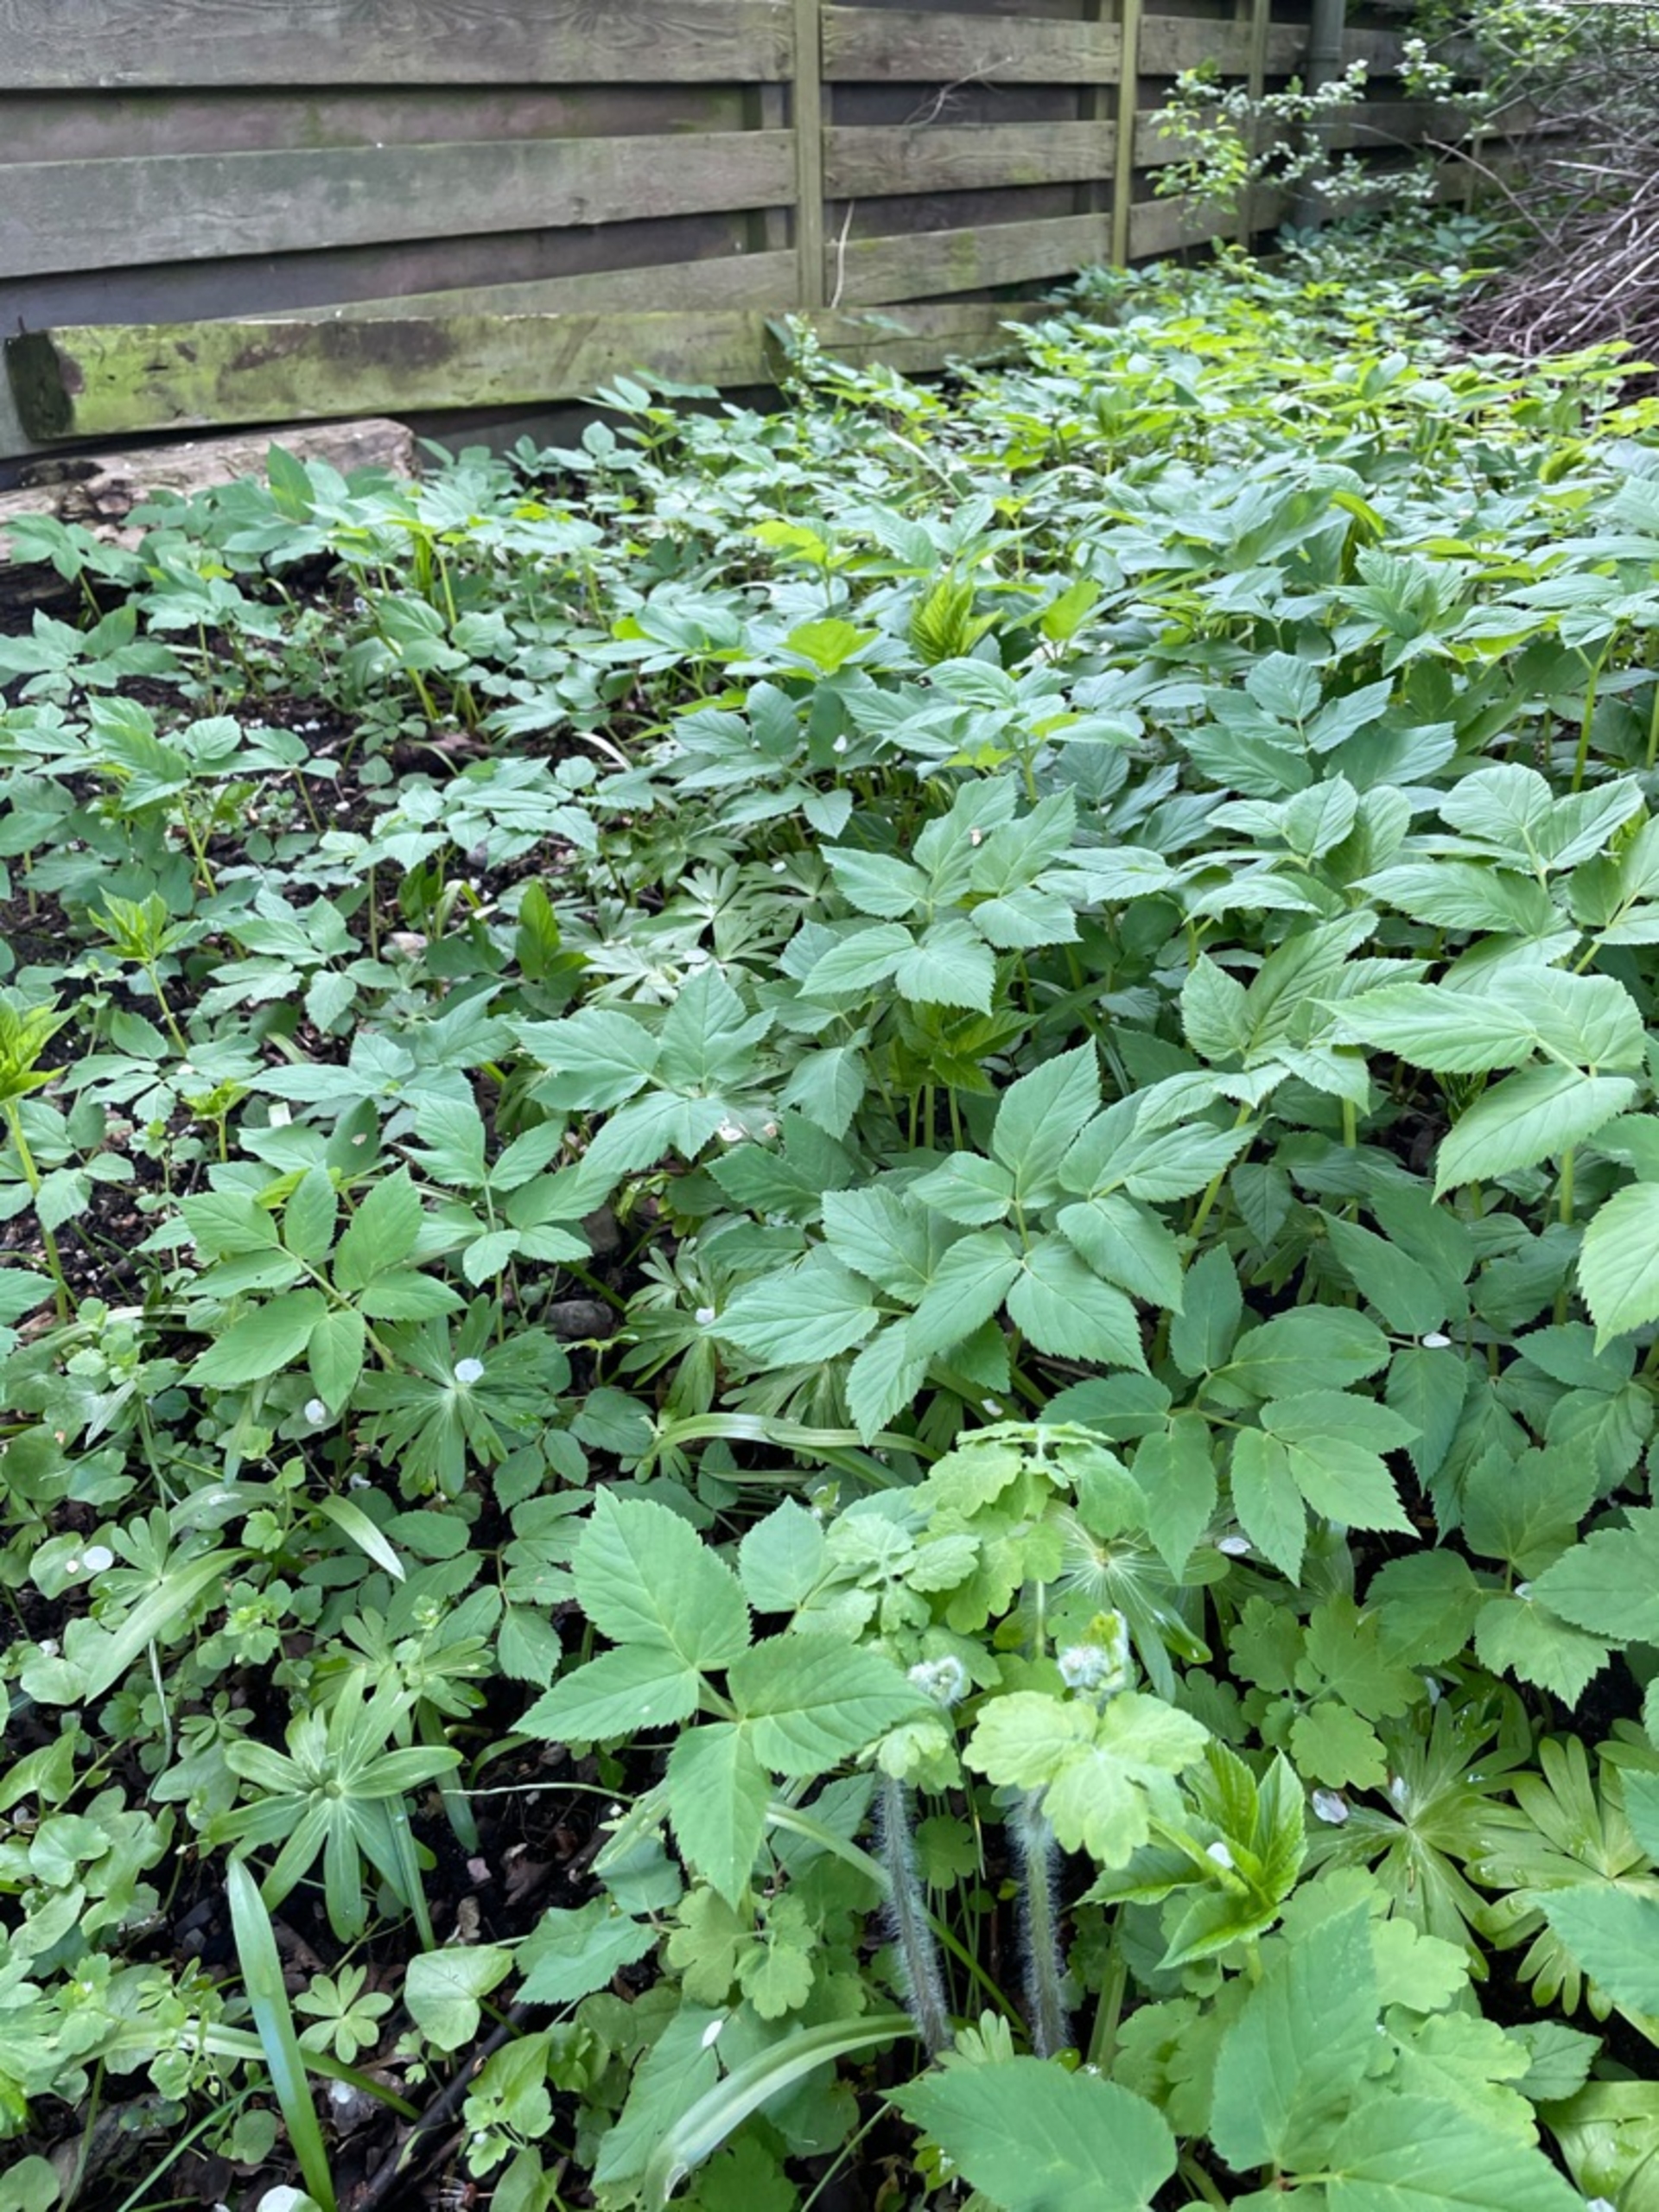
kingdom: Plantae
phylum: Tracheophyta
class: Magnoliopsida
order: Apiales
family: Apiaceae
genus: Aegopodium
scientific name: Aegopodium podagraria
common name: Skvalderkål
